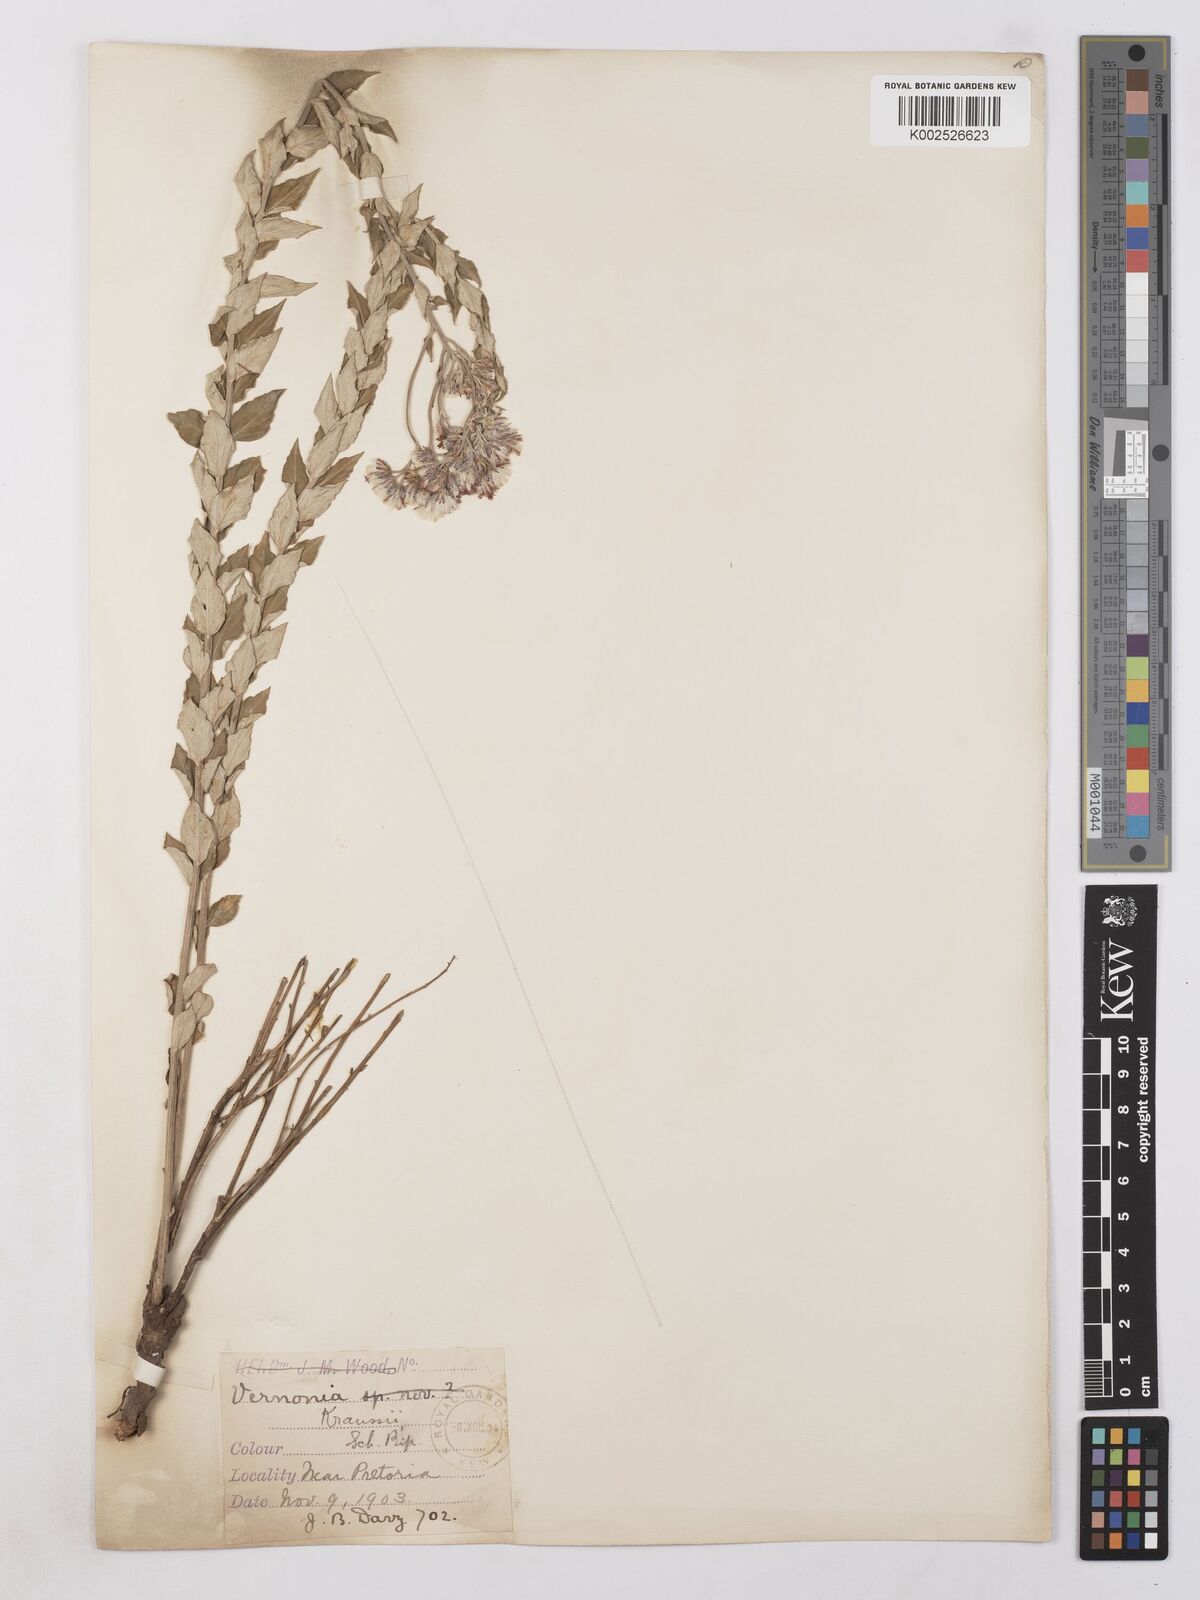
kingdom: Plantae
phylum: Tracheophyta
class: Magnoliopsida
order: Asterales
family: Asteraceae
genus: Hilliardiella
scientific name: Hilliardiella oligocephala
